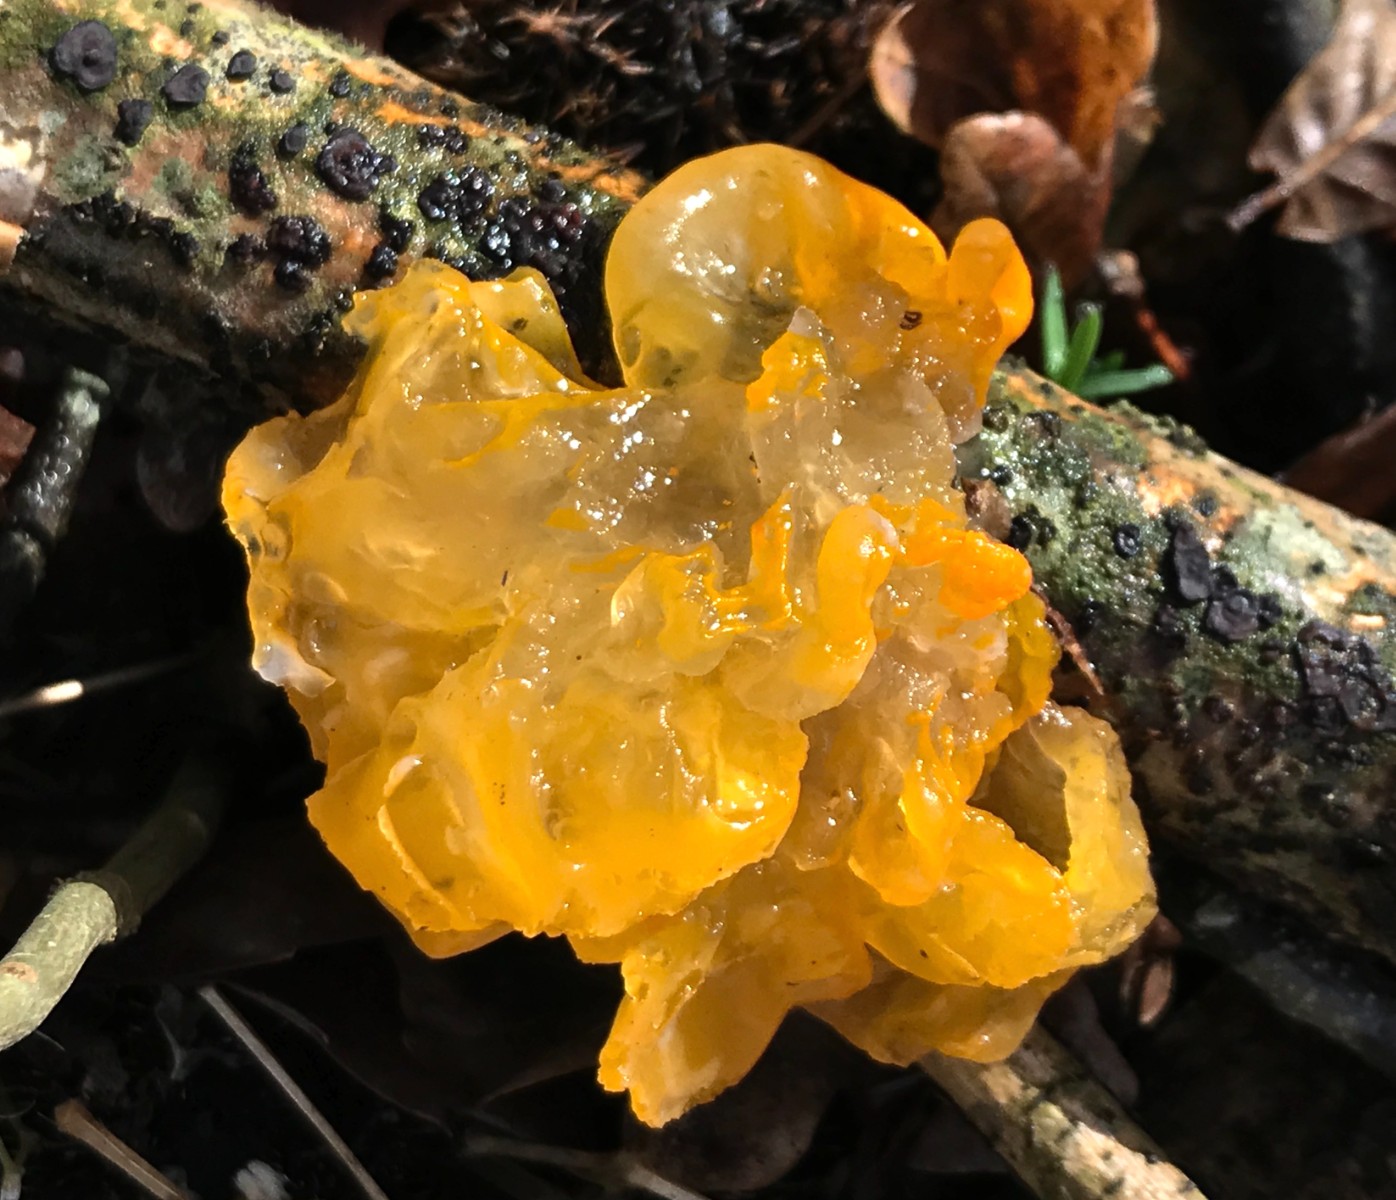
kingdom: Fungi
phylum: Basidiomycota
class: Tremellomycetes
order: Tremellales
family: Tremellaceae
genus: Tremella
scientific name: Tremella mesenterica
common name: gul bævresvamp
